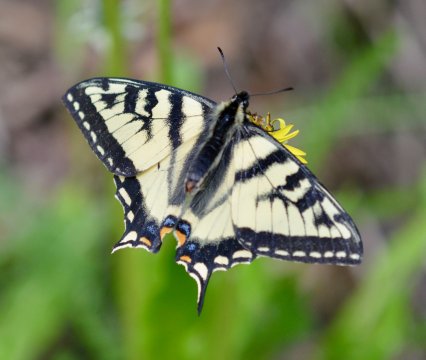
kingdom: Animalia
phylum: Arthropoda
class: Insecta
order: Lepidoptera
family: Papilionidae
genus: Pterourus
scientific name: Pterourus canadensis
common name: Canadian Tiger Swallowtail
